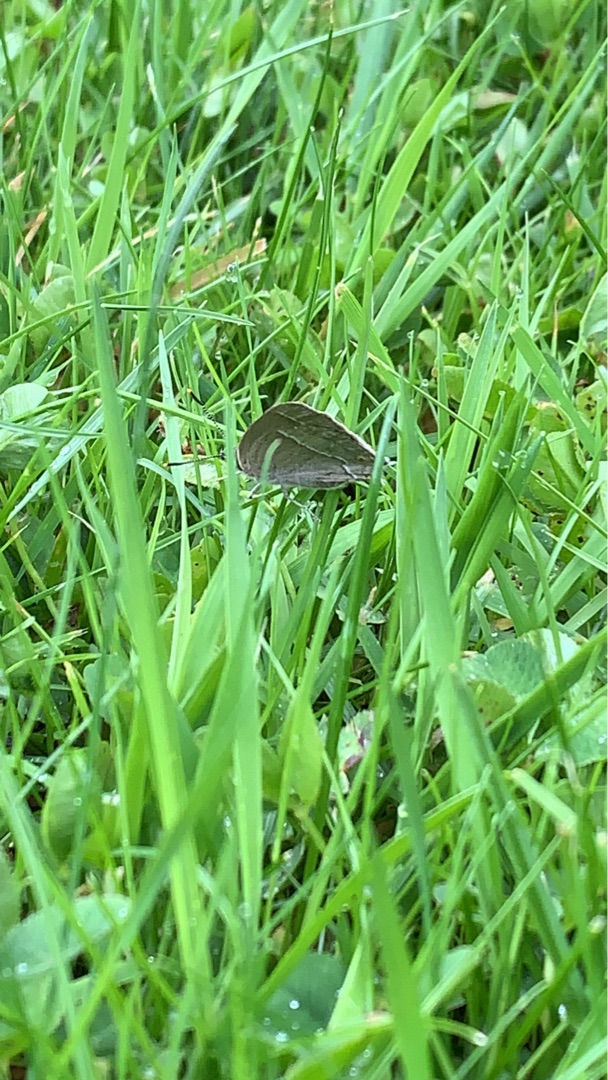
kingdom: Animalia
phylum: Arthropoda
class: Insecta
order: Lepidoptera
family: Lycaenidae
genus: Quercusia
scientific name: Quercusia quercus
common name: Blåhale
